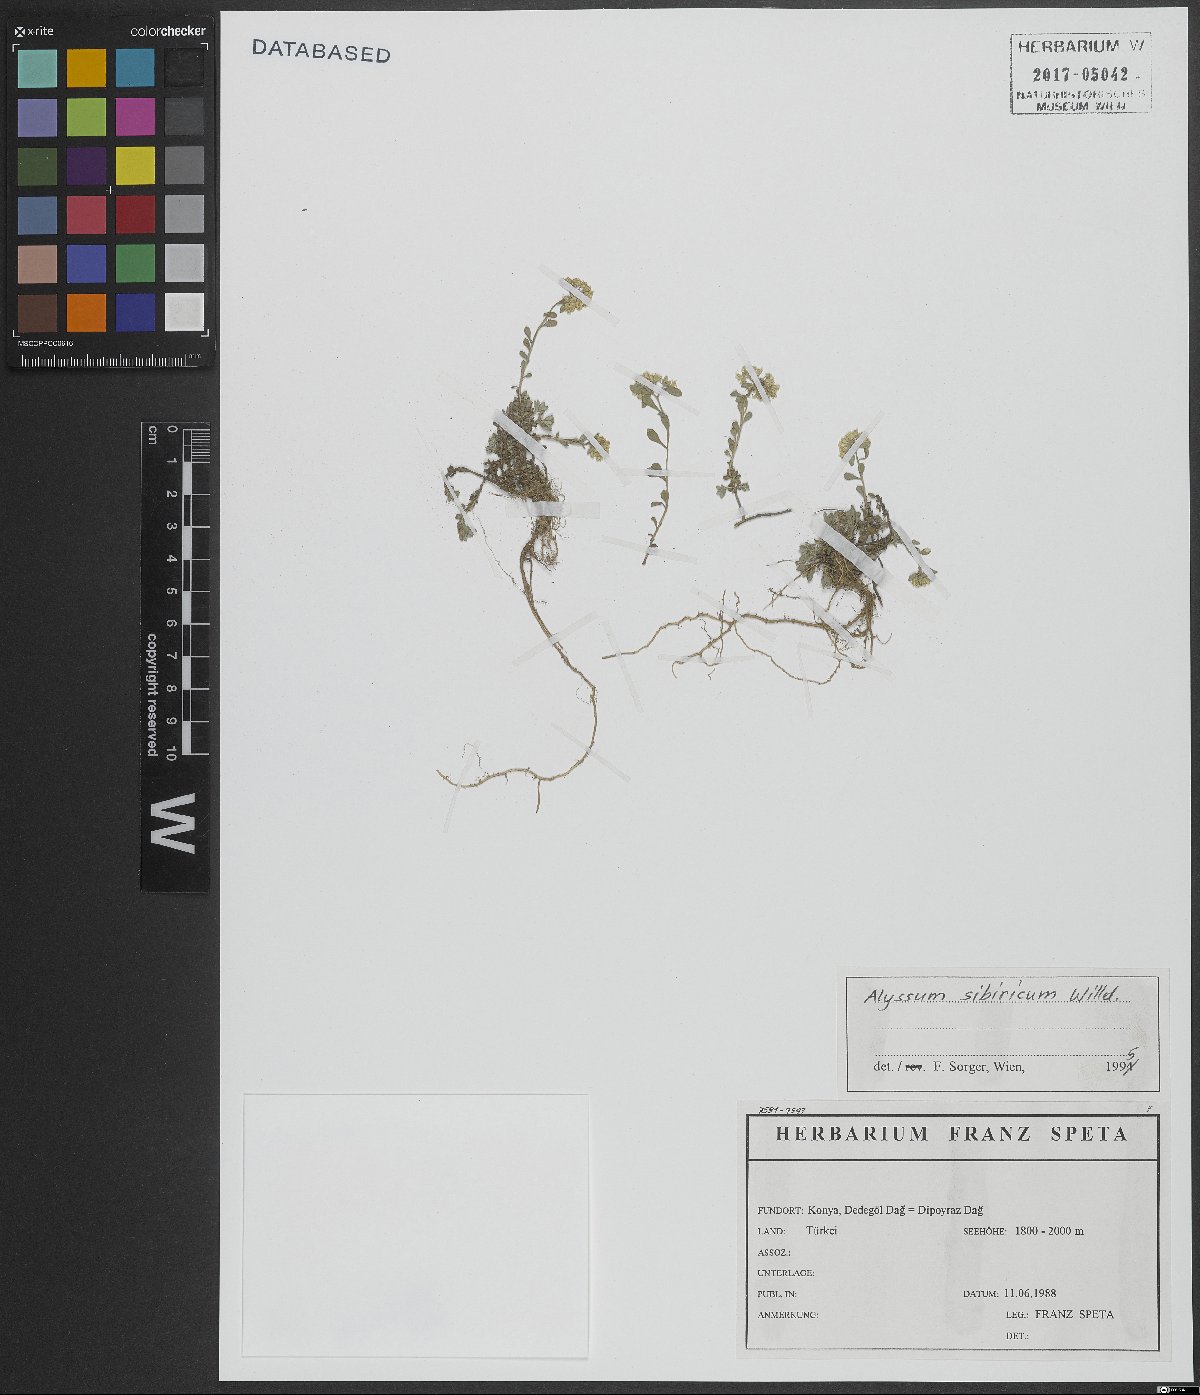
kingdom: Plantae
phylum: Tracheophyta
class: Magnoliopsida
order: Brassicales
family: Brassicaceae
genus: Odontarrhena
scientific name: Odontarrhena sibirica
